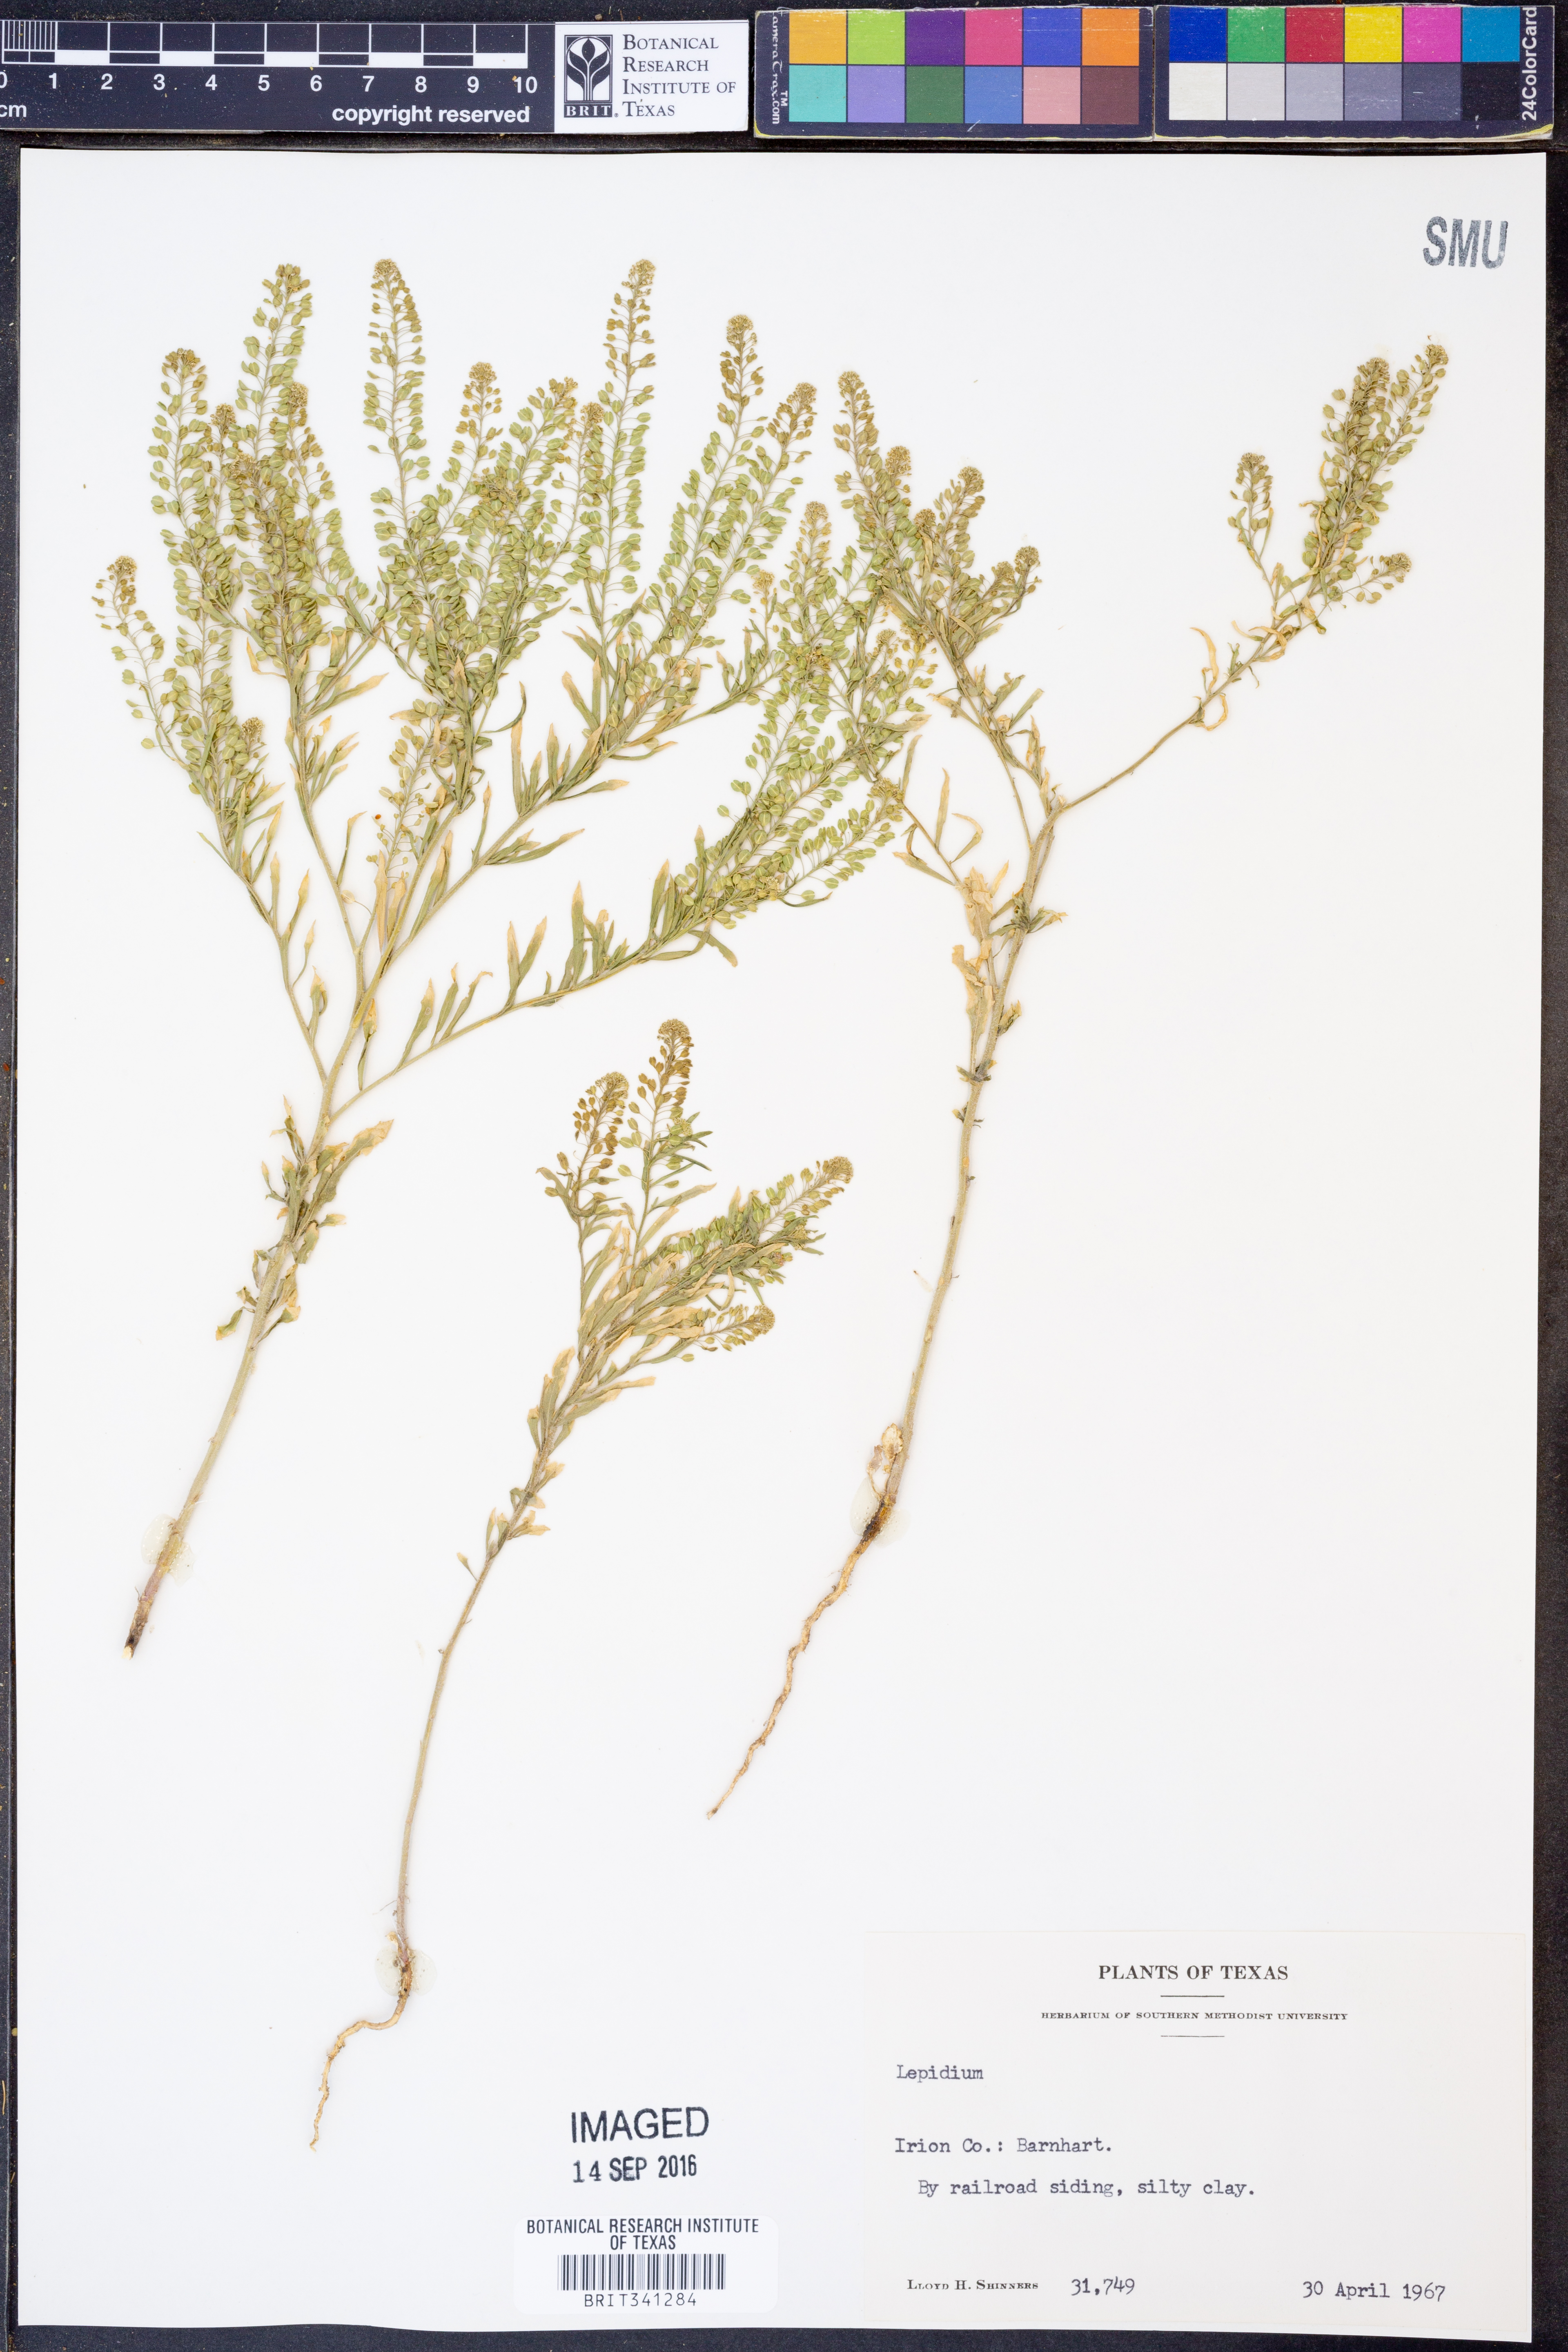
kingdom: Plantae
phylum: Tracheophyta
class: Magnoliopsida
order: Brassicales
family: Brassicaceae
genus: Lepidium
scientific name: Lepidium
